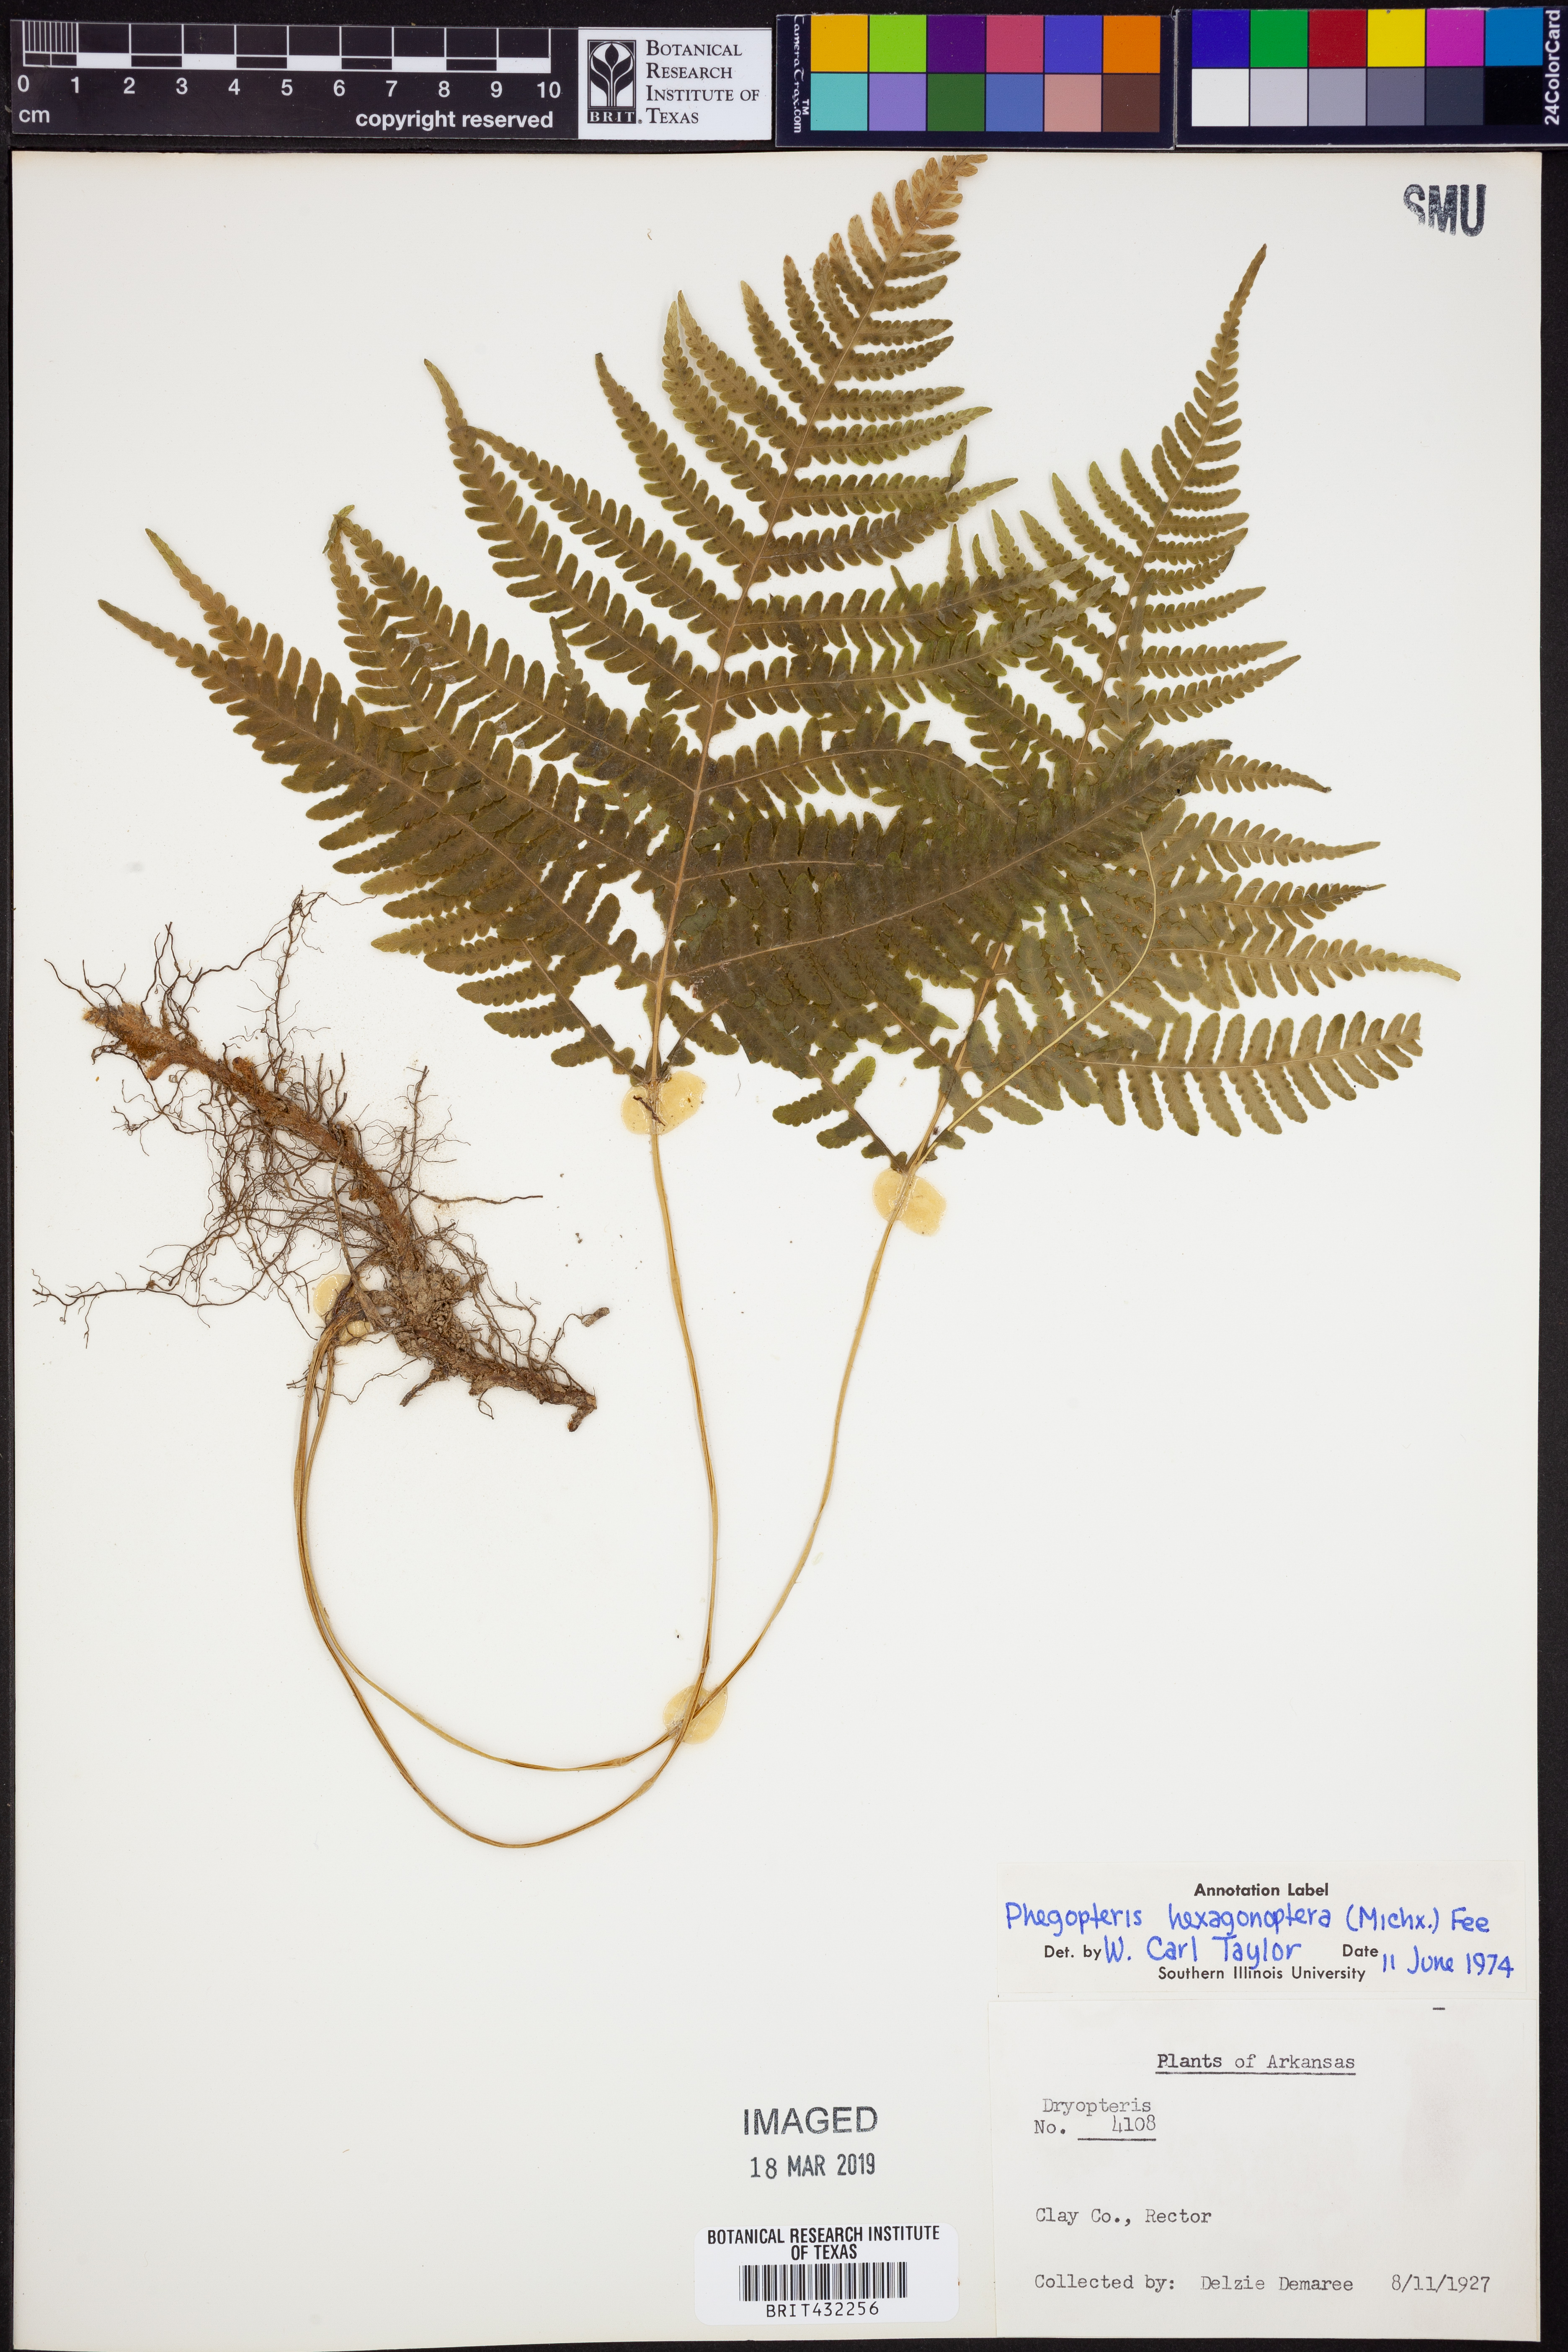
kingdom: Plantae
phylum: Tracheophyta
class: Polypodiopsida
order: Polypodiales
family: Thelypteridaceae
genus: Phegopteris
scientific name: Phegopteris hexagonoptera
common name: Broad beech fern
